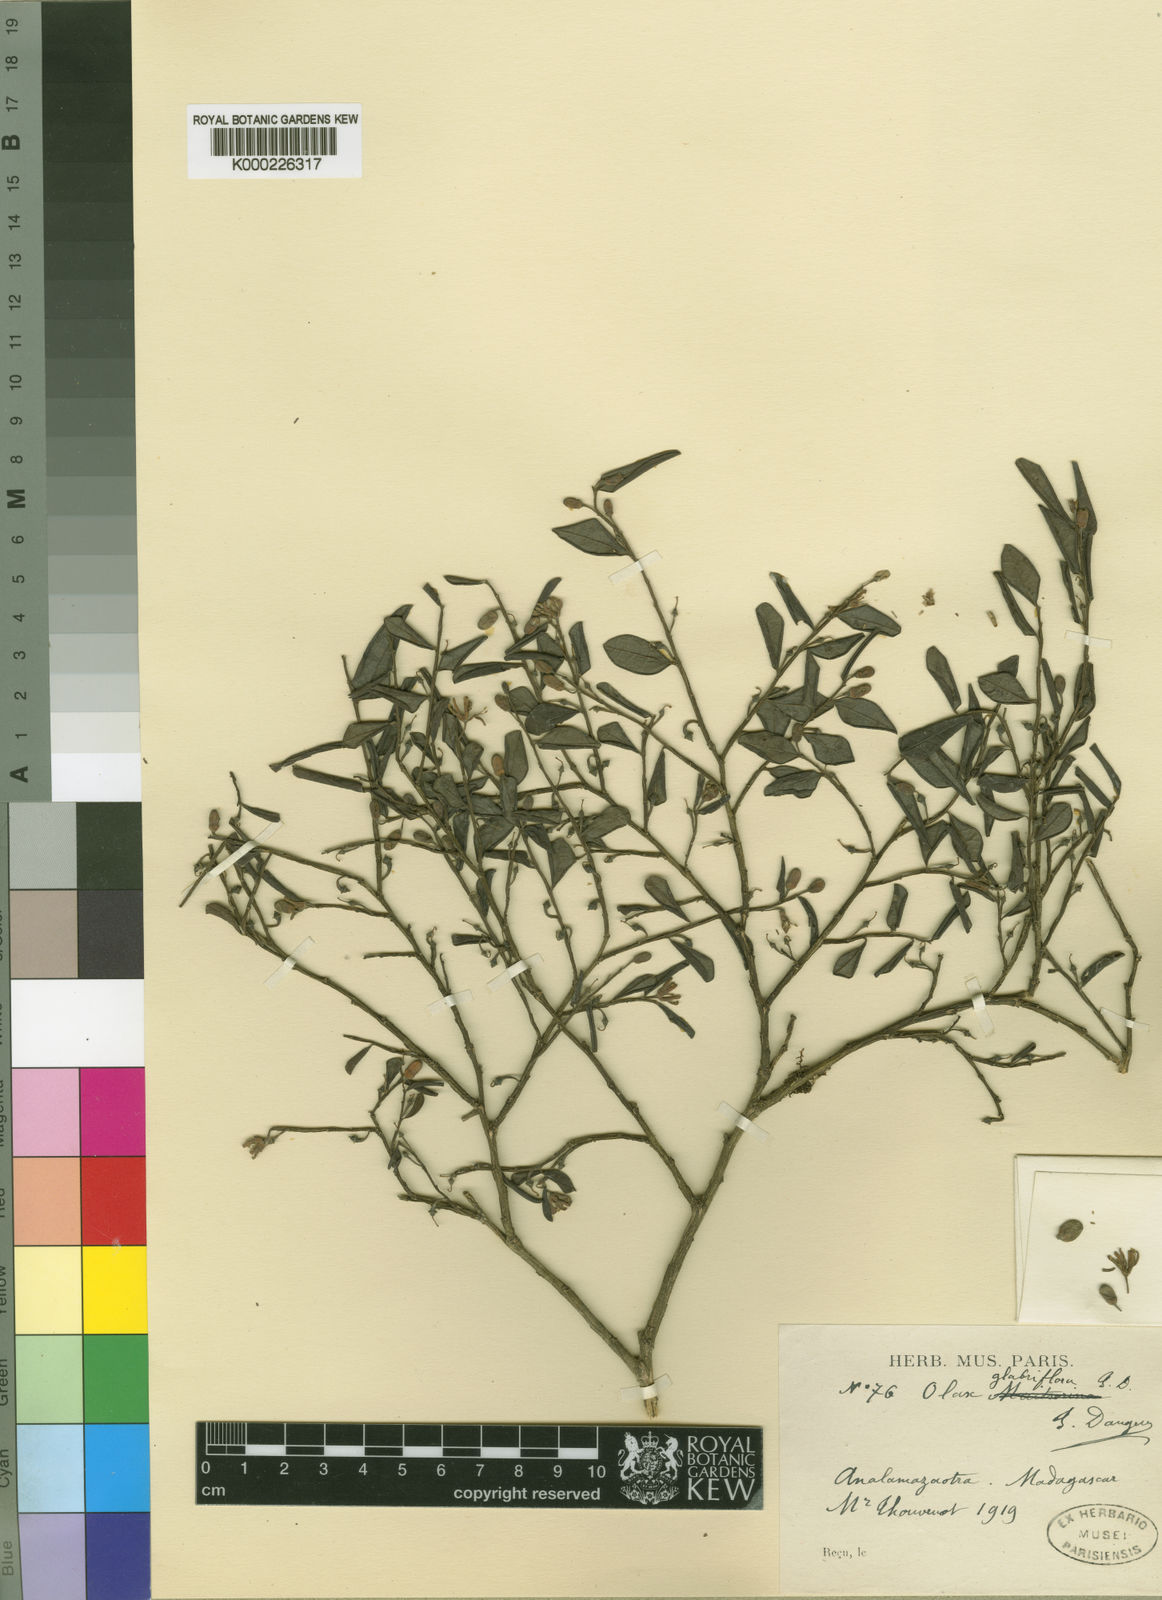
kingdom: Plantae
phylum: Tracheophyta
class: Magnoliopsida
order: Santalales
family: Olacaceae
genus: Olax
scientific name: Olax thouarsii
